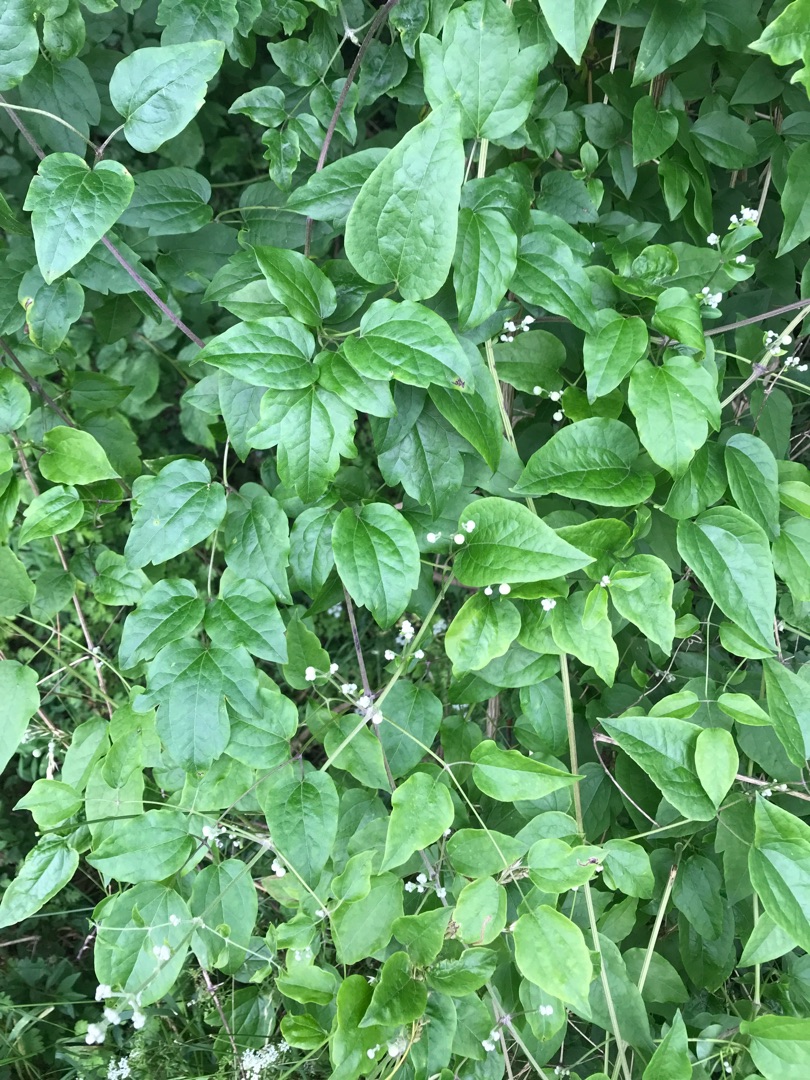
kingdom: Plantae
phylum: Tracheophyta
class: Magnoliopsida
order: Ranunculales
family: Ranunculaceae
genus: Clematis
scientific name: Clematis vitalba
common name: Skovranke
